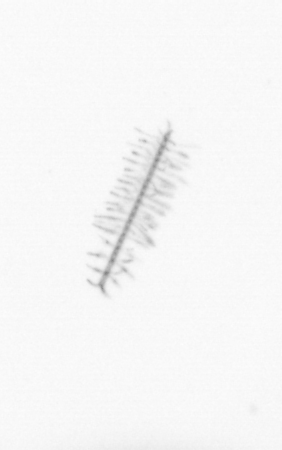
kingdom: Chromista
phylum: Ochrophyta
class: Bacillariophyceae
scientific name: Bacillariophyceae
